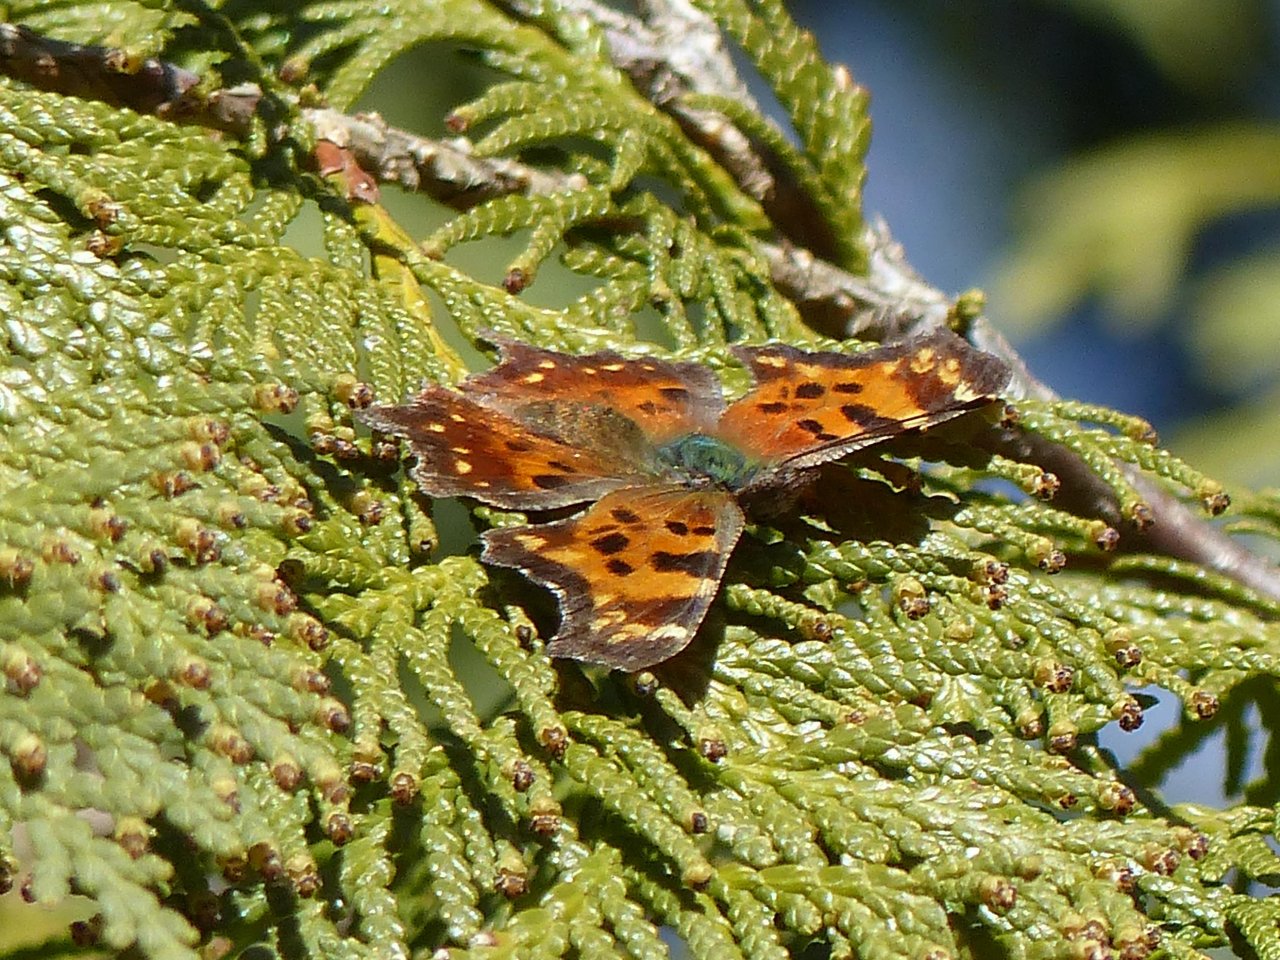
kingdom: Animalia
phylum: Arthropoda
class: Insecta
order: Lepidoptera
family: Nymphalidae
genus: Polygonia
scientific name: Polygonia faunus
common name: Green Comma
